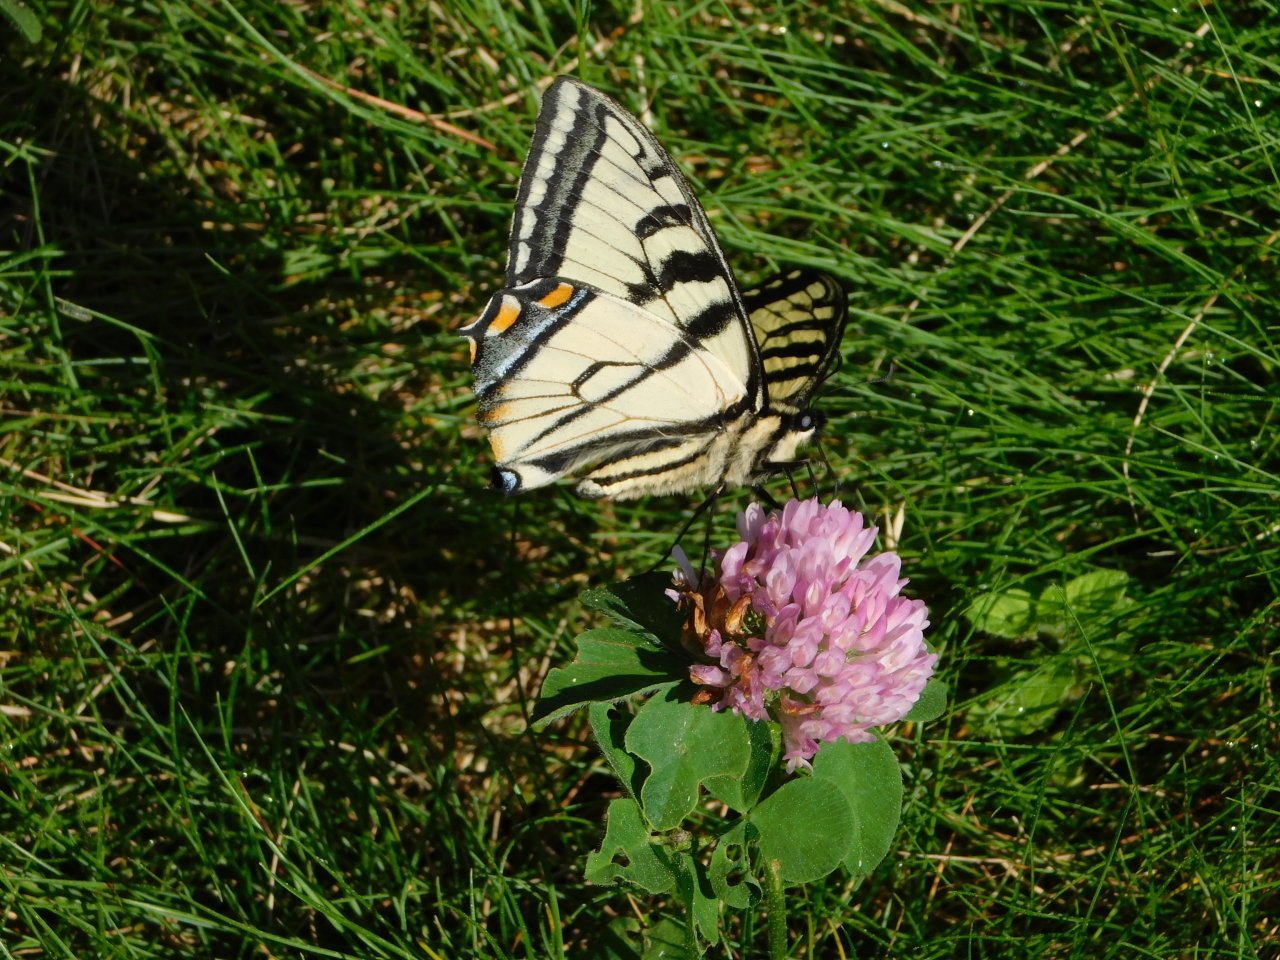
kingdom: Animalia
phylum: Arthropoda
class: Insecta
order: Lepidoptera
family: Papilionidae
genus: Pterourus
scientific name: Pterourus canadensis
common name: Canadian Tiger Swallowtail
